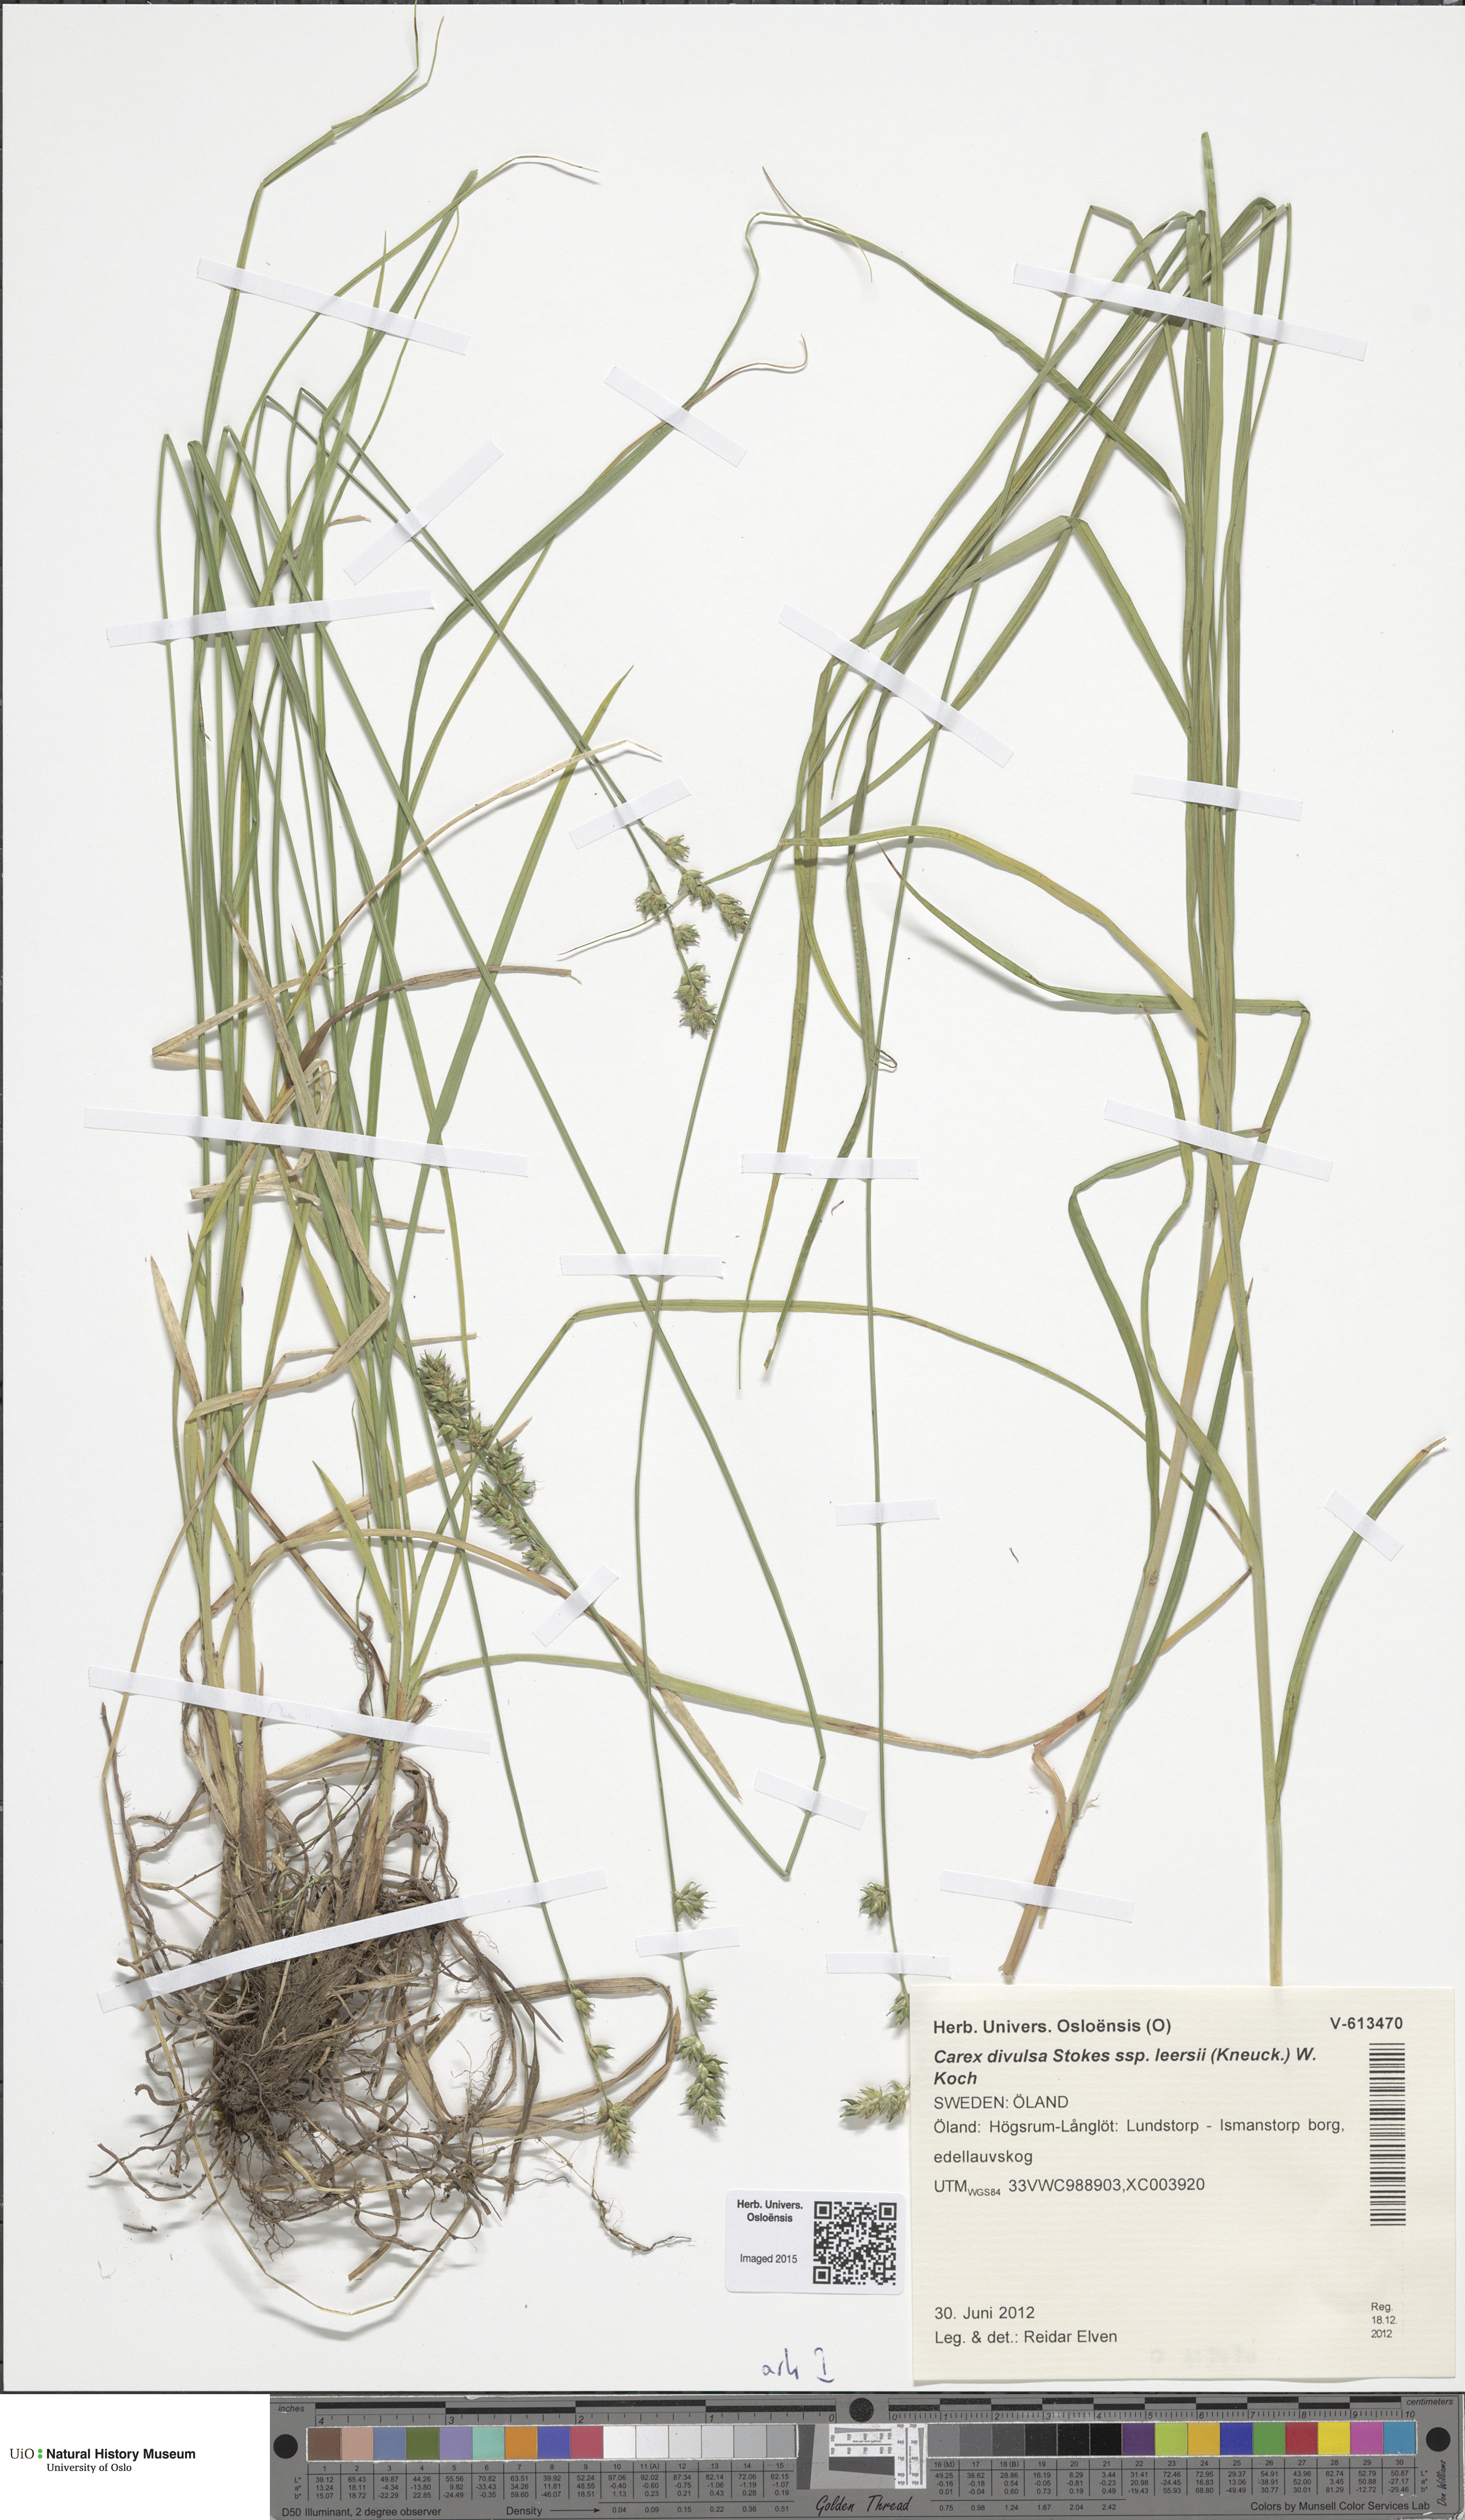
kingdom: Plantae
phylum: Tracheophyta
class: Liliopsida
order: Poales
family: Cyperaceae
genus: Carex
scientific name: Carex leersii
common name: Leers' sedge
